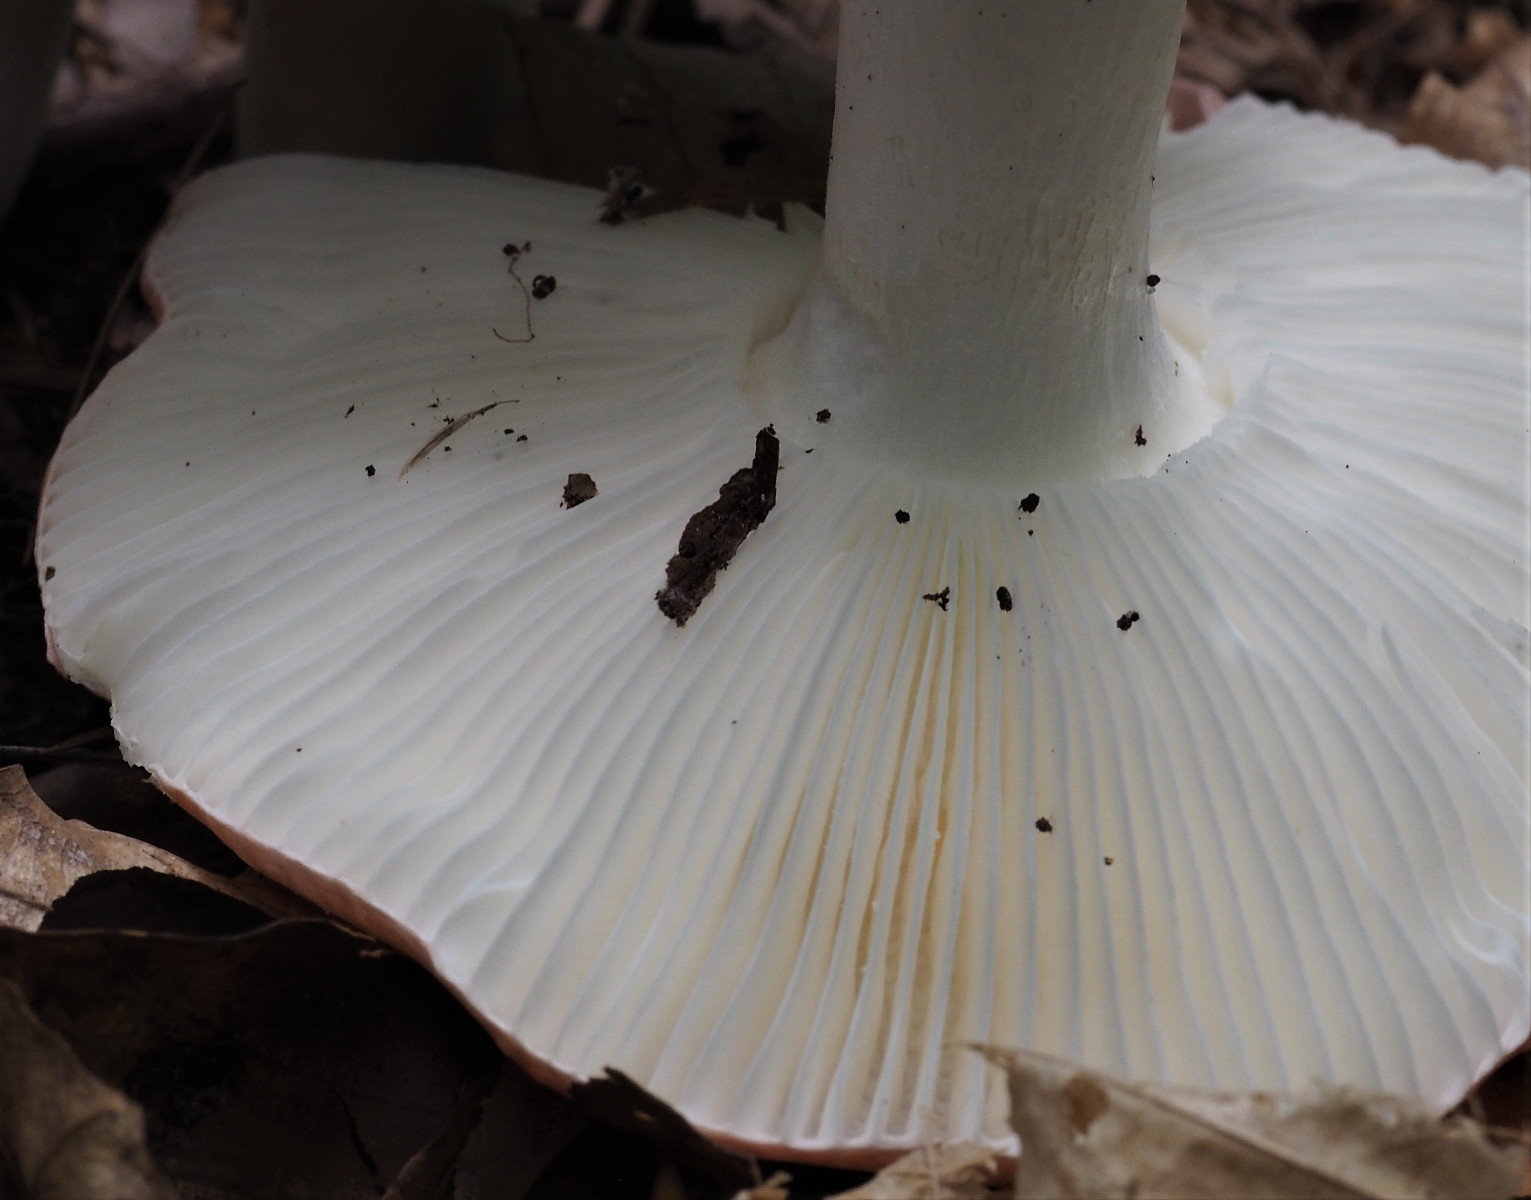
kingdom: Fungi
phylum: Basidiomycota
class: Agaricomycetes
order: Russulales
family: Russulaceae
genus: Russula
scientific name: Russula silvestris
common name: mellemstor gift-skørhat
